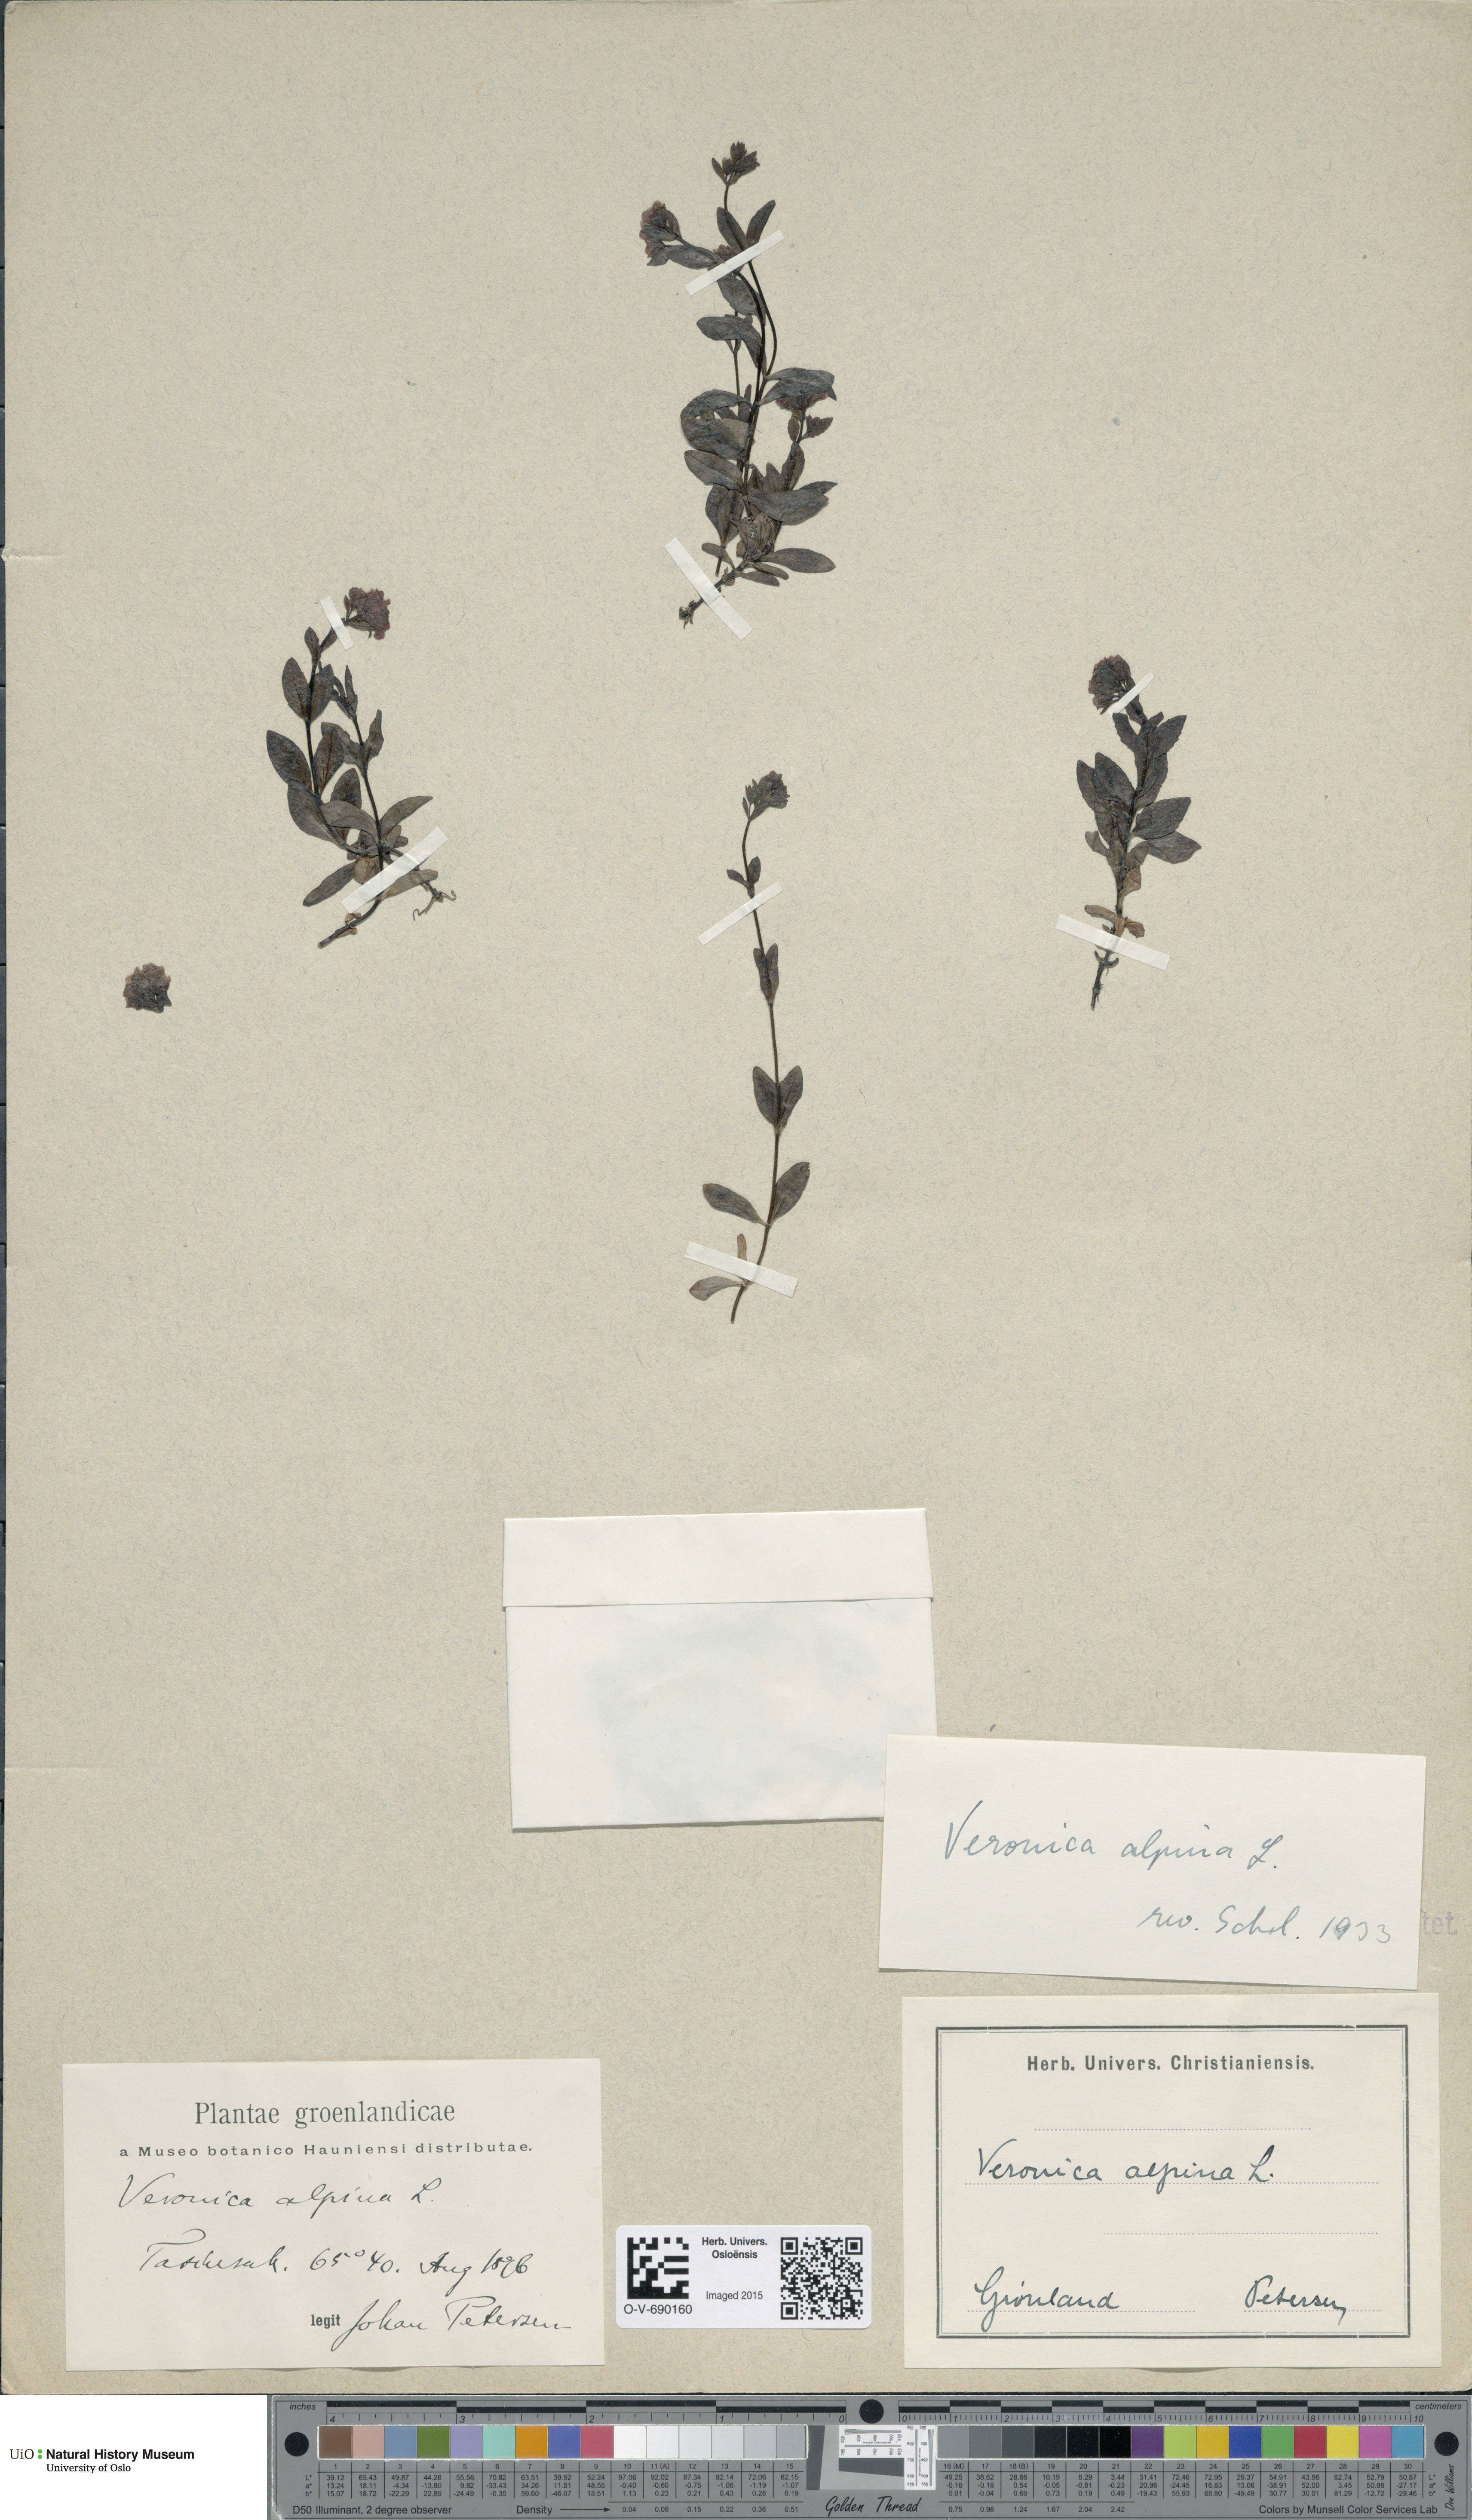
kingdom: Plantae
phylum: Tracheophyta
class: Magnoliopsida
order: Lamiales
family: Plantaginaceae
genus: Veronica
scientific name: Veronica alpina
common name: Alpine speedwell
